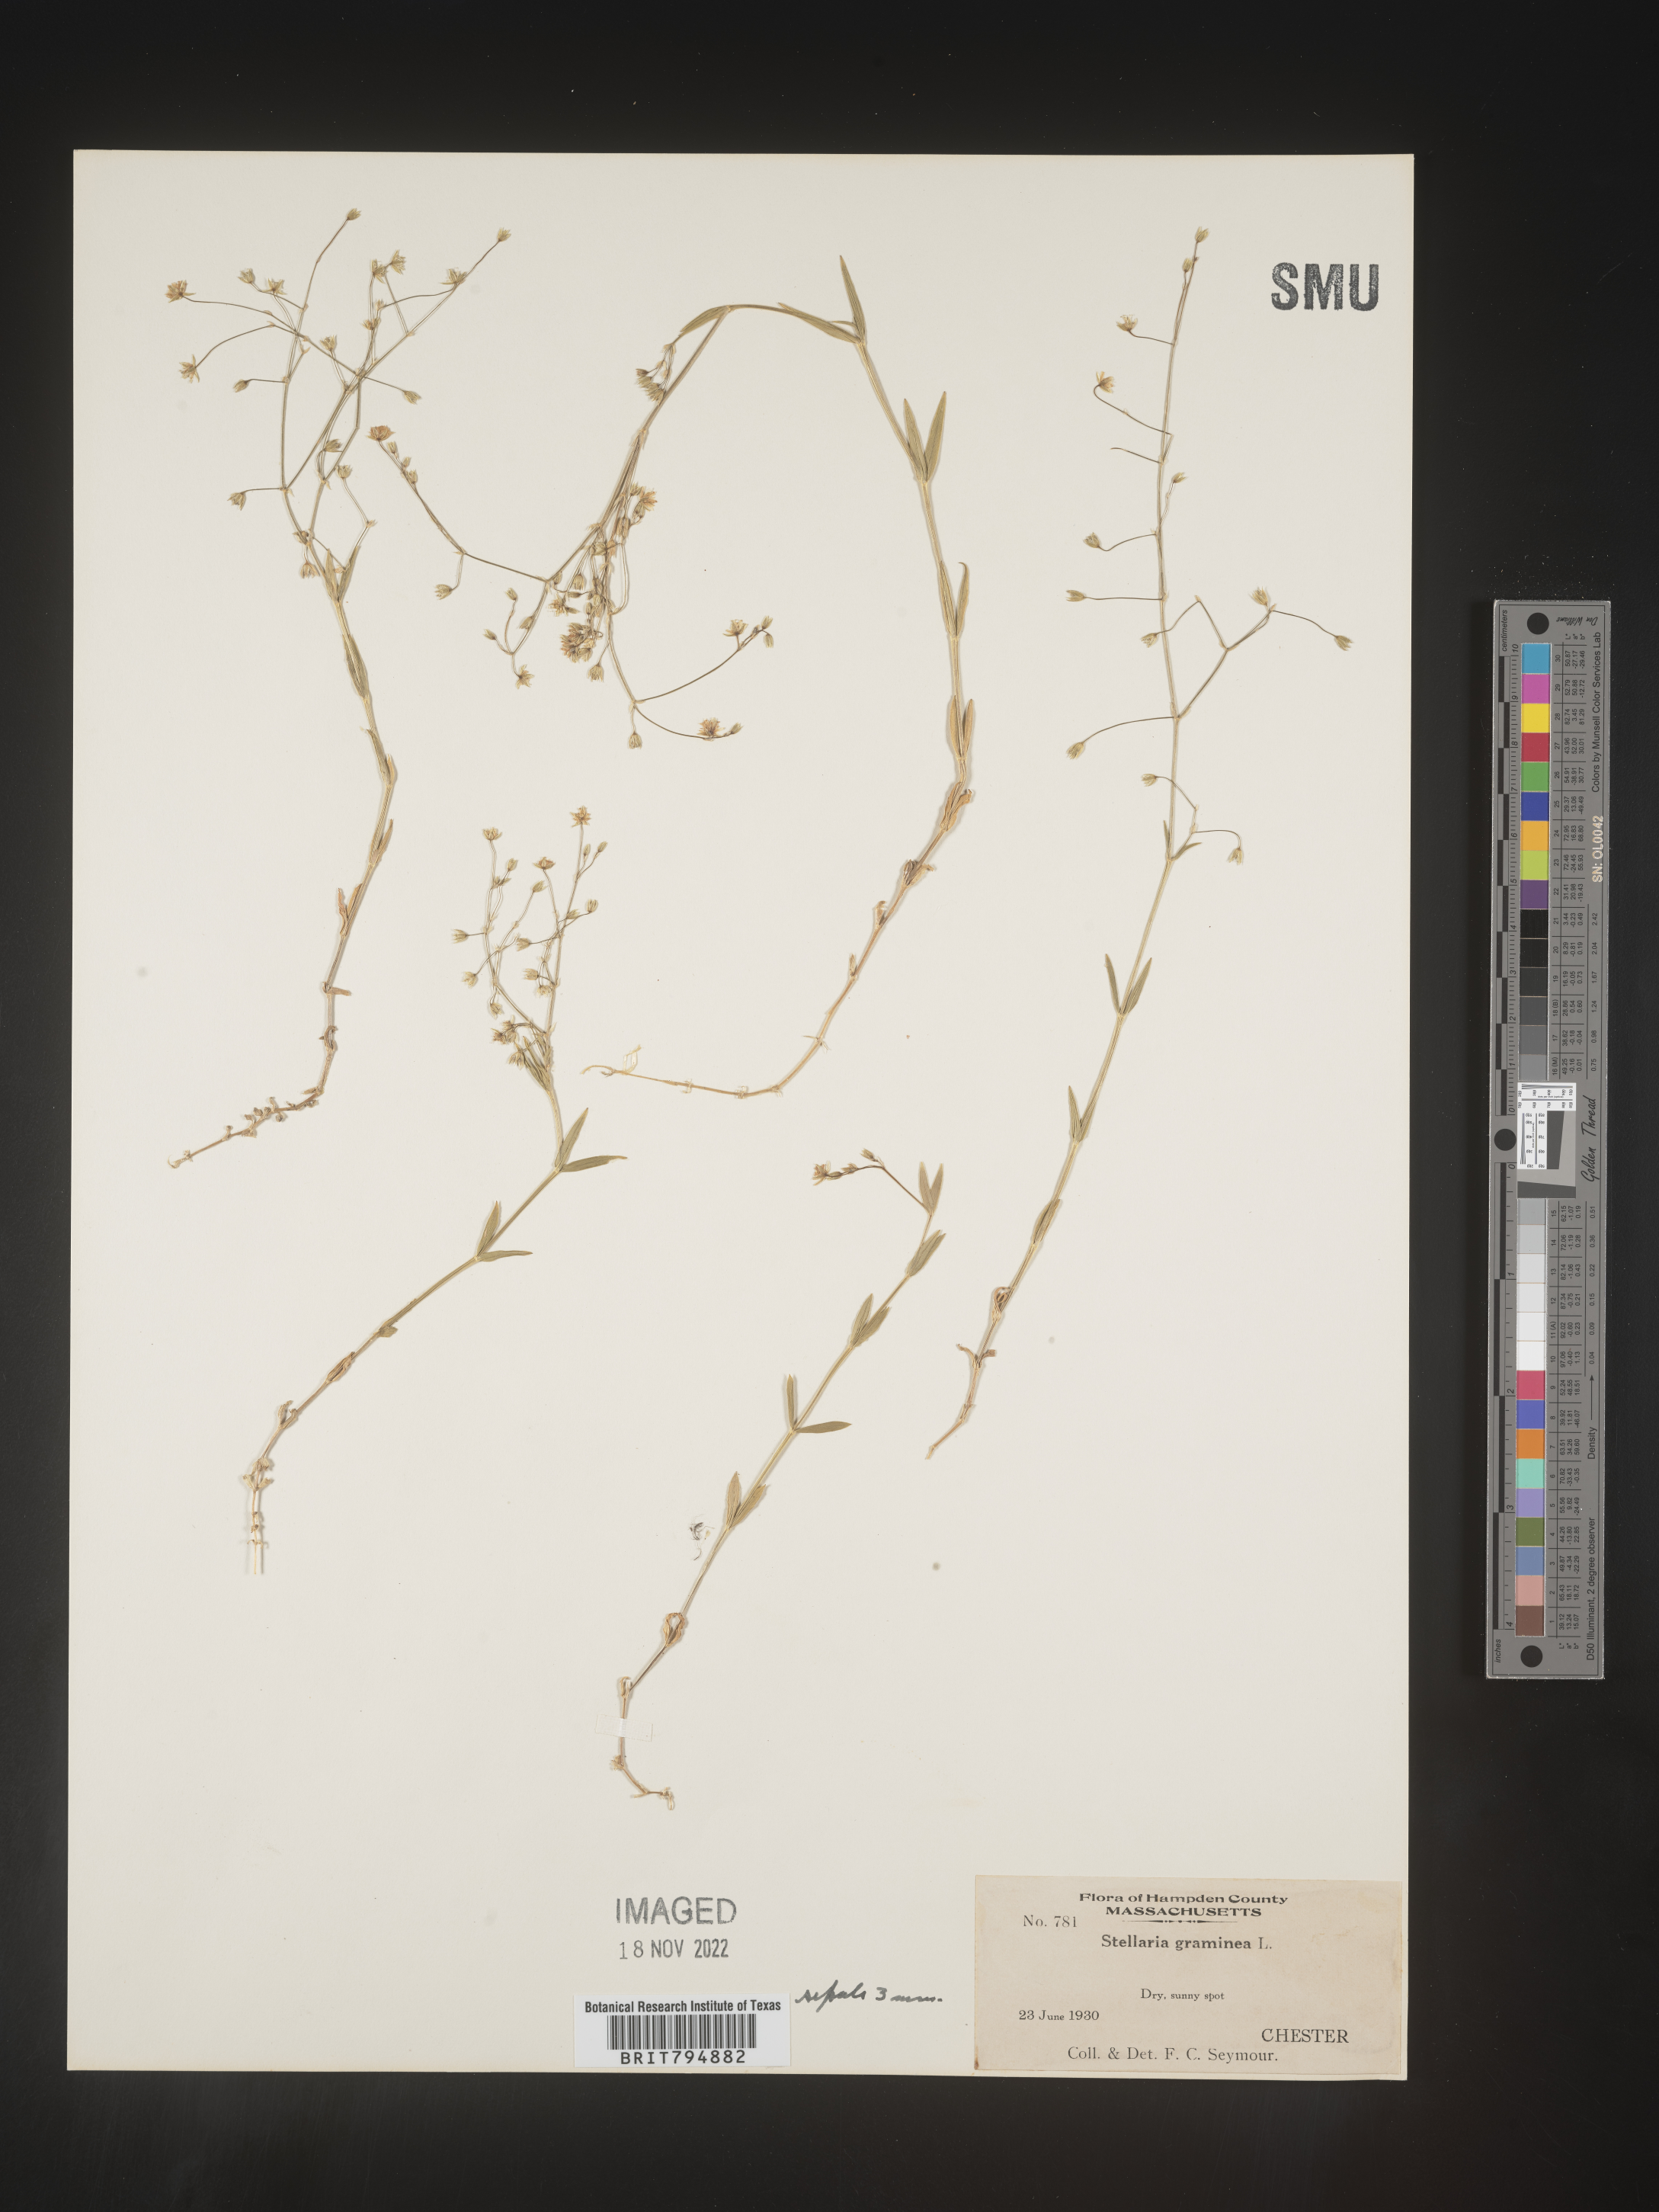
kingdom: Plantae
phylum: Tracheophyta
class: Magnoliopsida
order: Caryophyllales
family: Caryophyllaceae
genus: Stellaria
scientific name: Stellaria graminea
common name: Grass-like starwort
